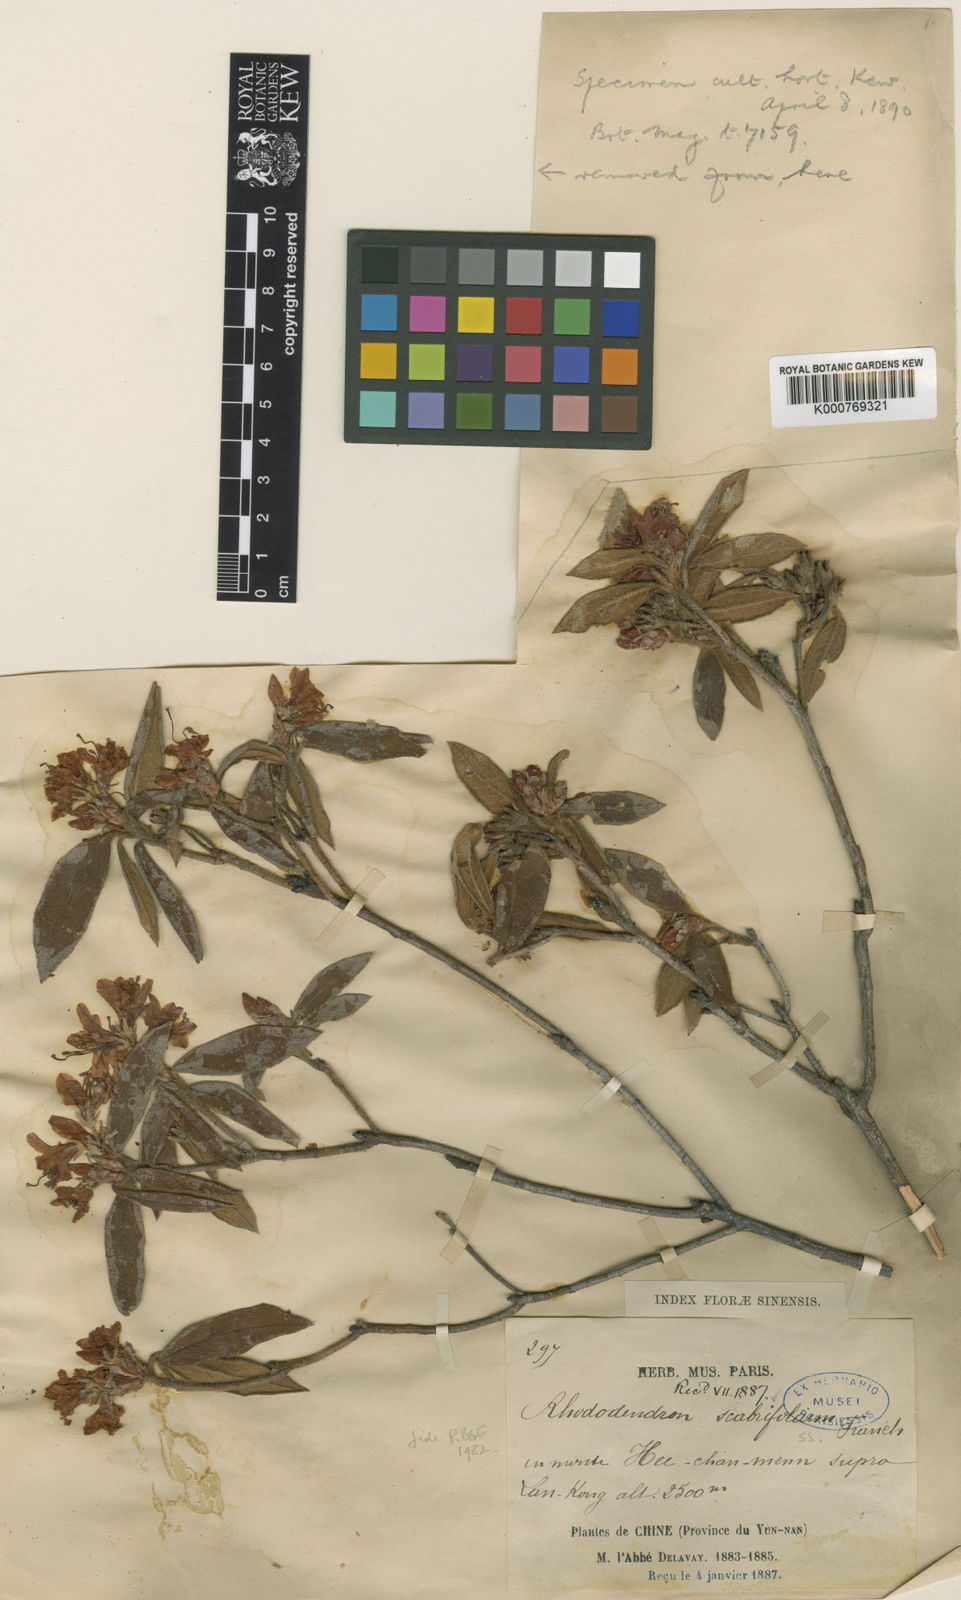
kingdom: Plantae
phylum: Tracheophyta
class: Magnoliopsida
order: Ericales
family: Ericaceae
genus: Rhododendron
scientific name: Rhododendron scabrifolium
